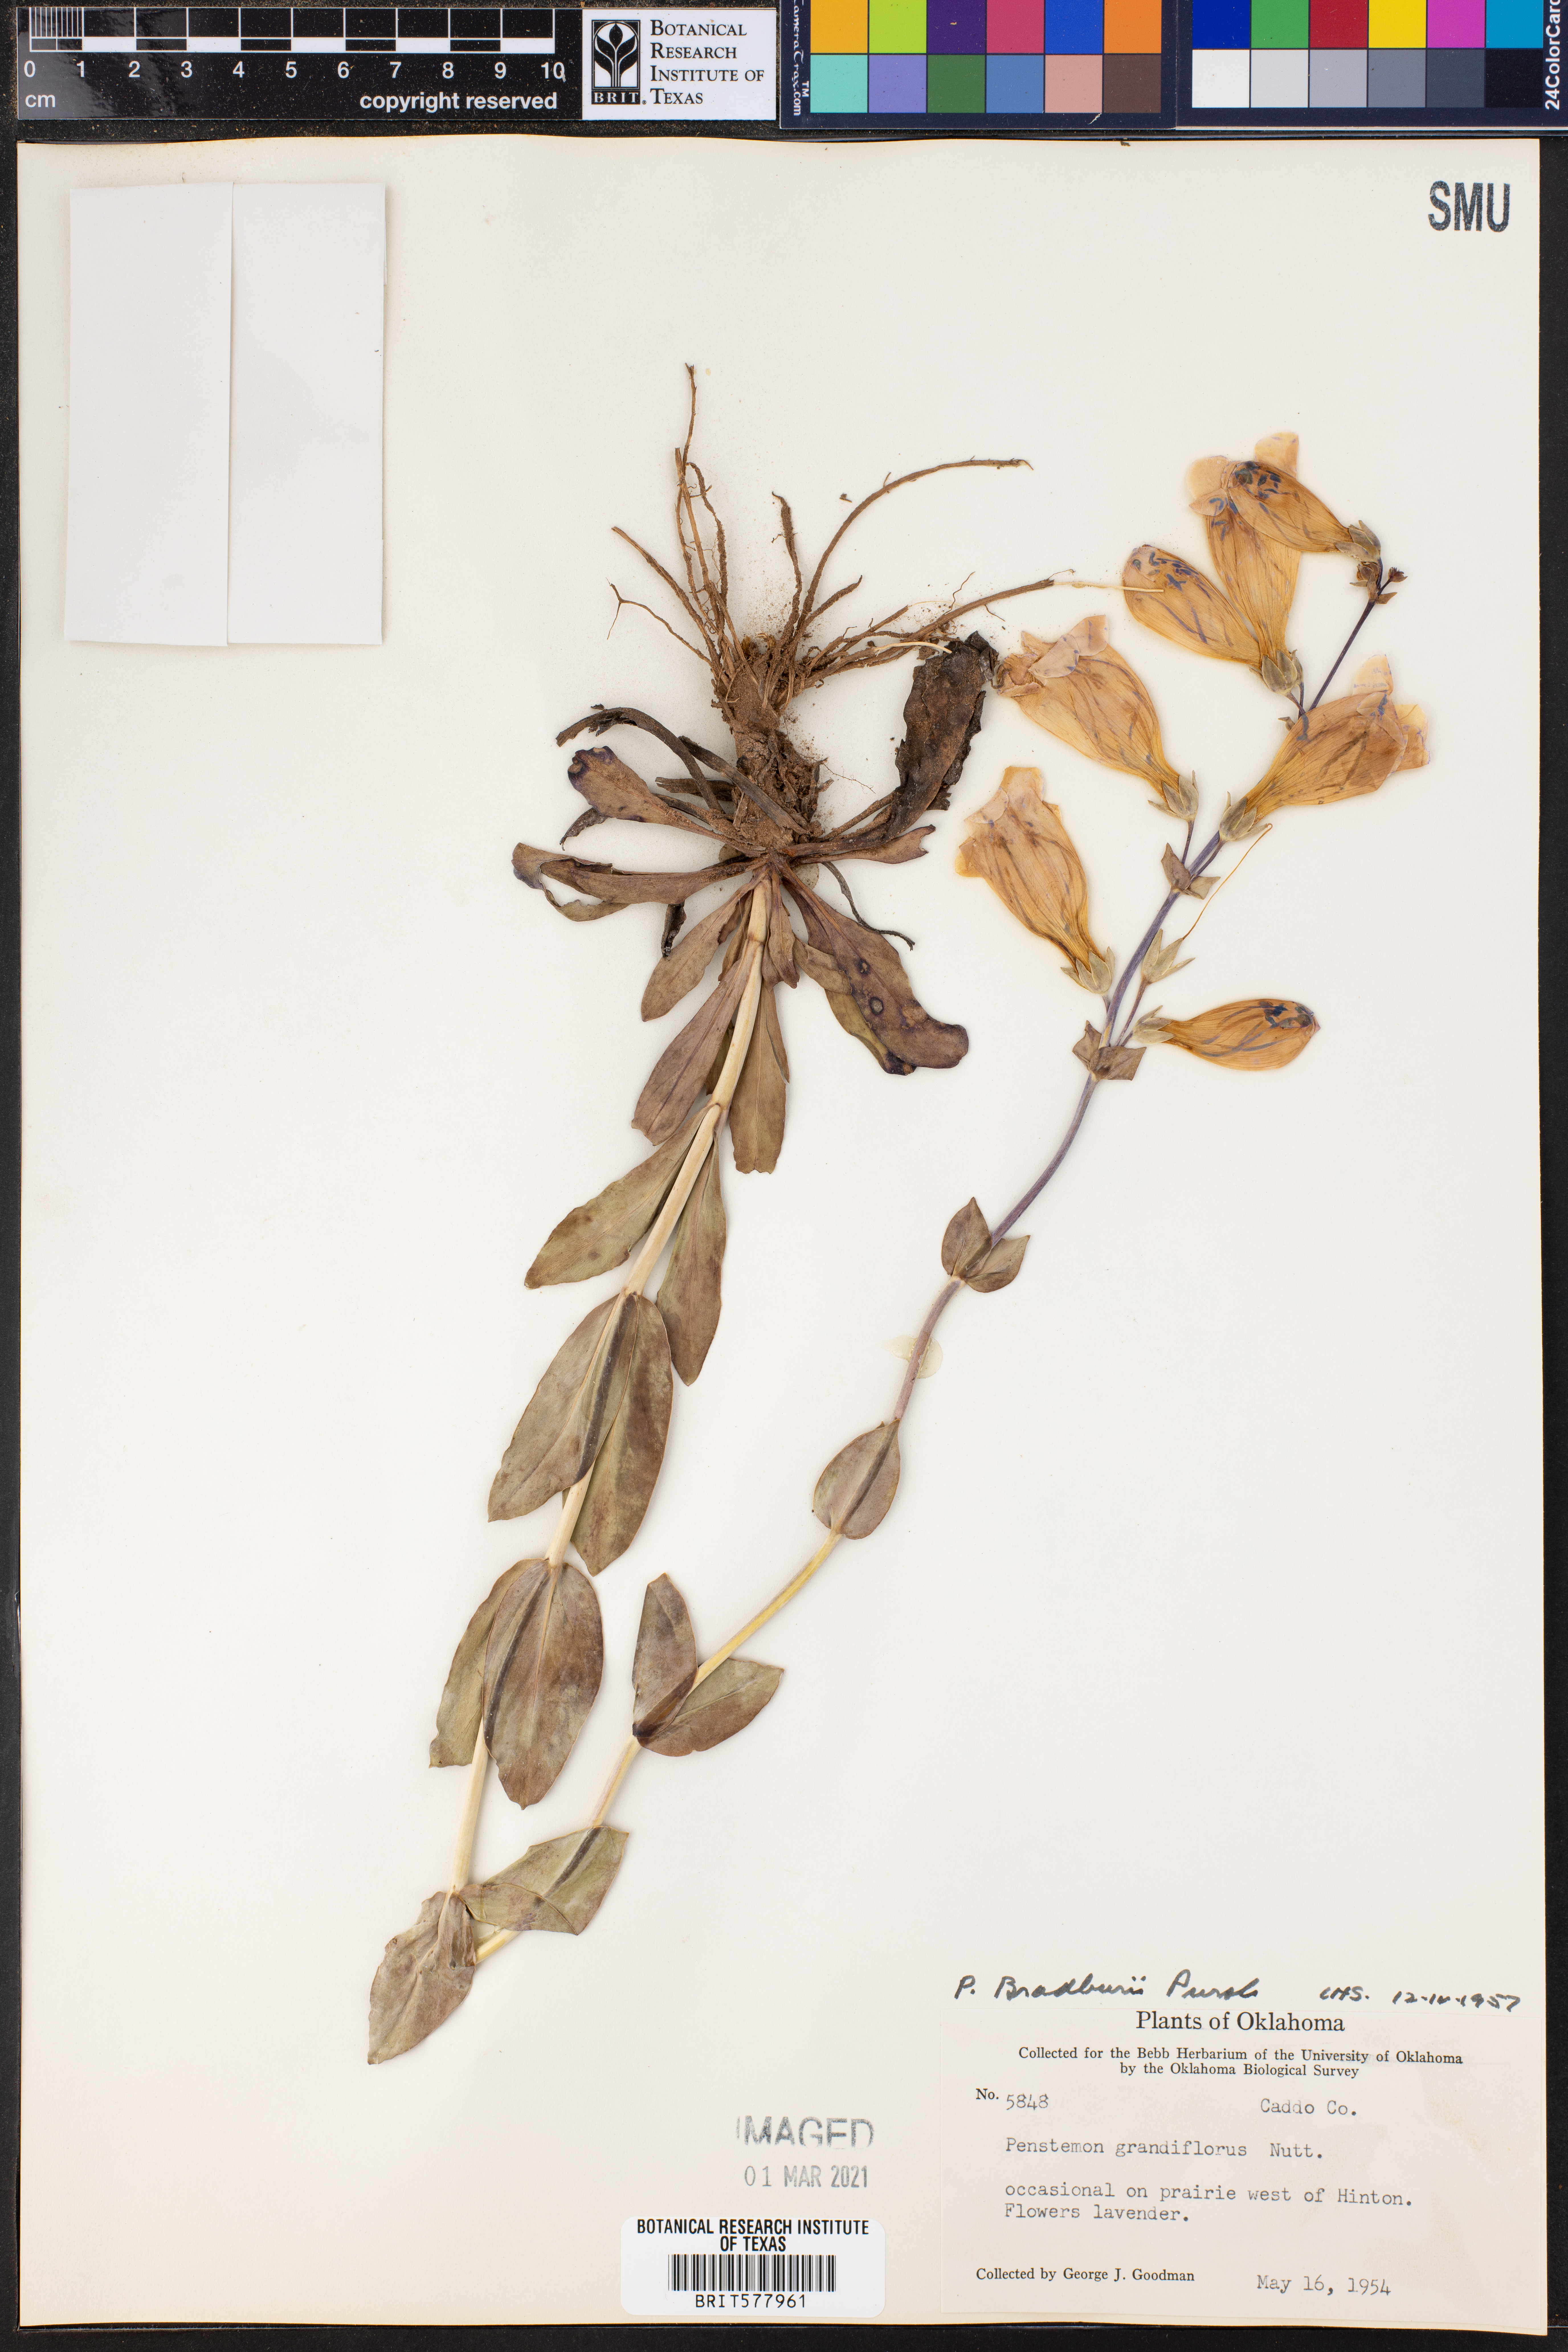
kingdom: Plantae
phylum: Tracheophyta
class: Magnoliopsida
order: Lamiales
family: Plantaginaceae
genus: Penstemon
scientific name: Penstemon bradburyi
